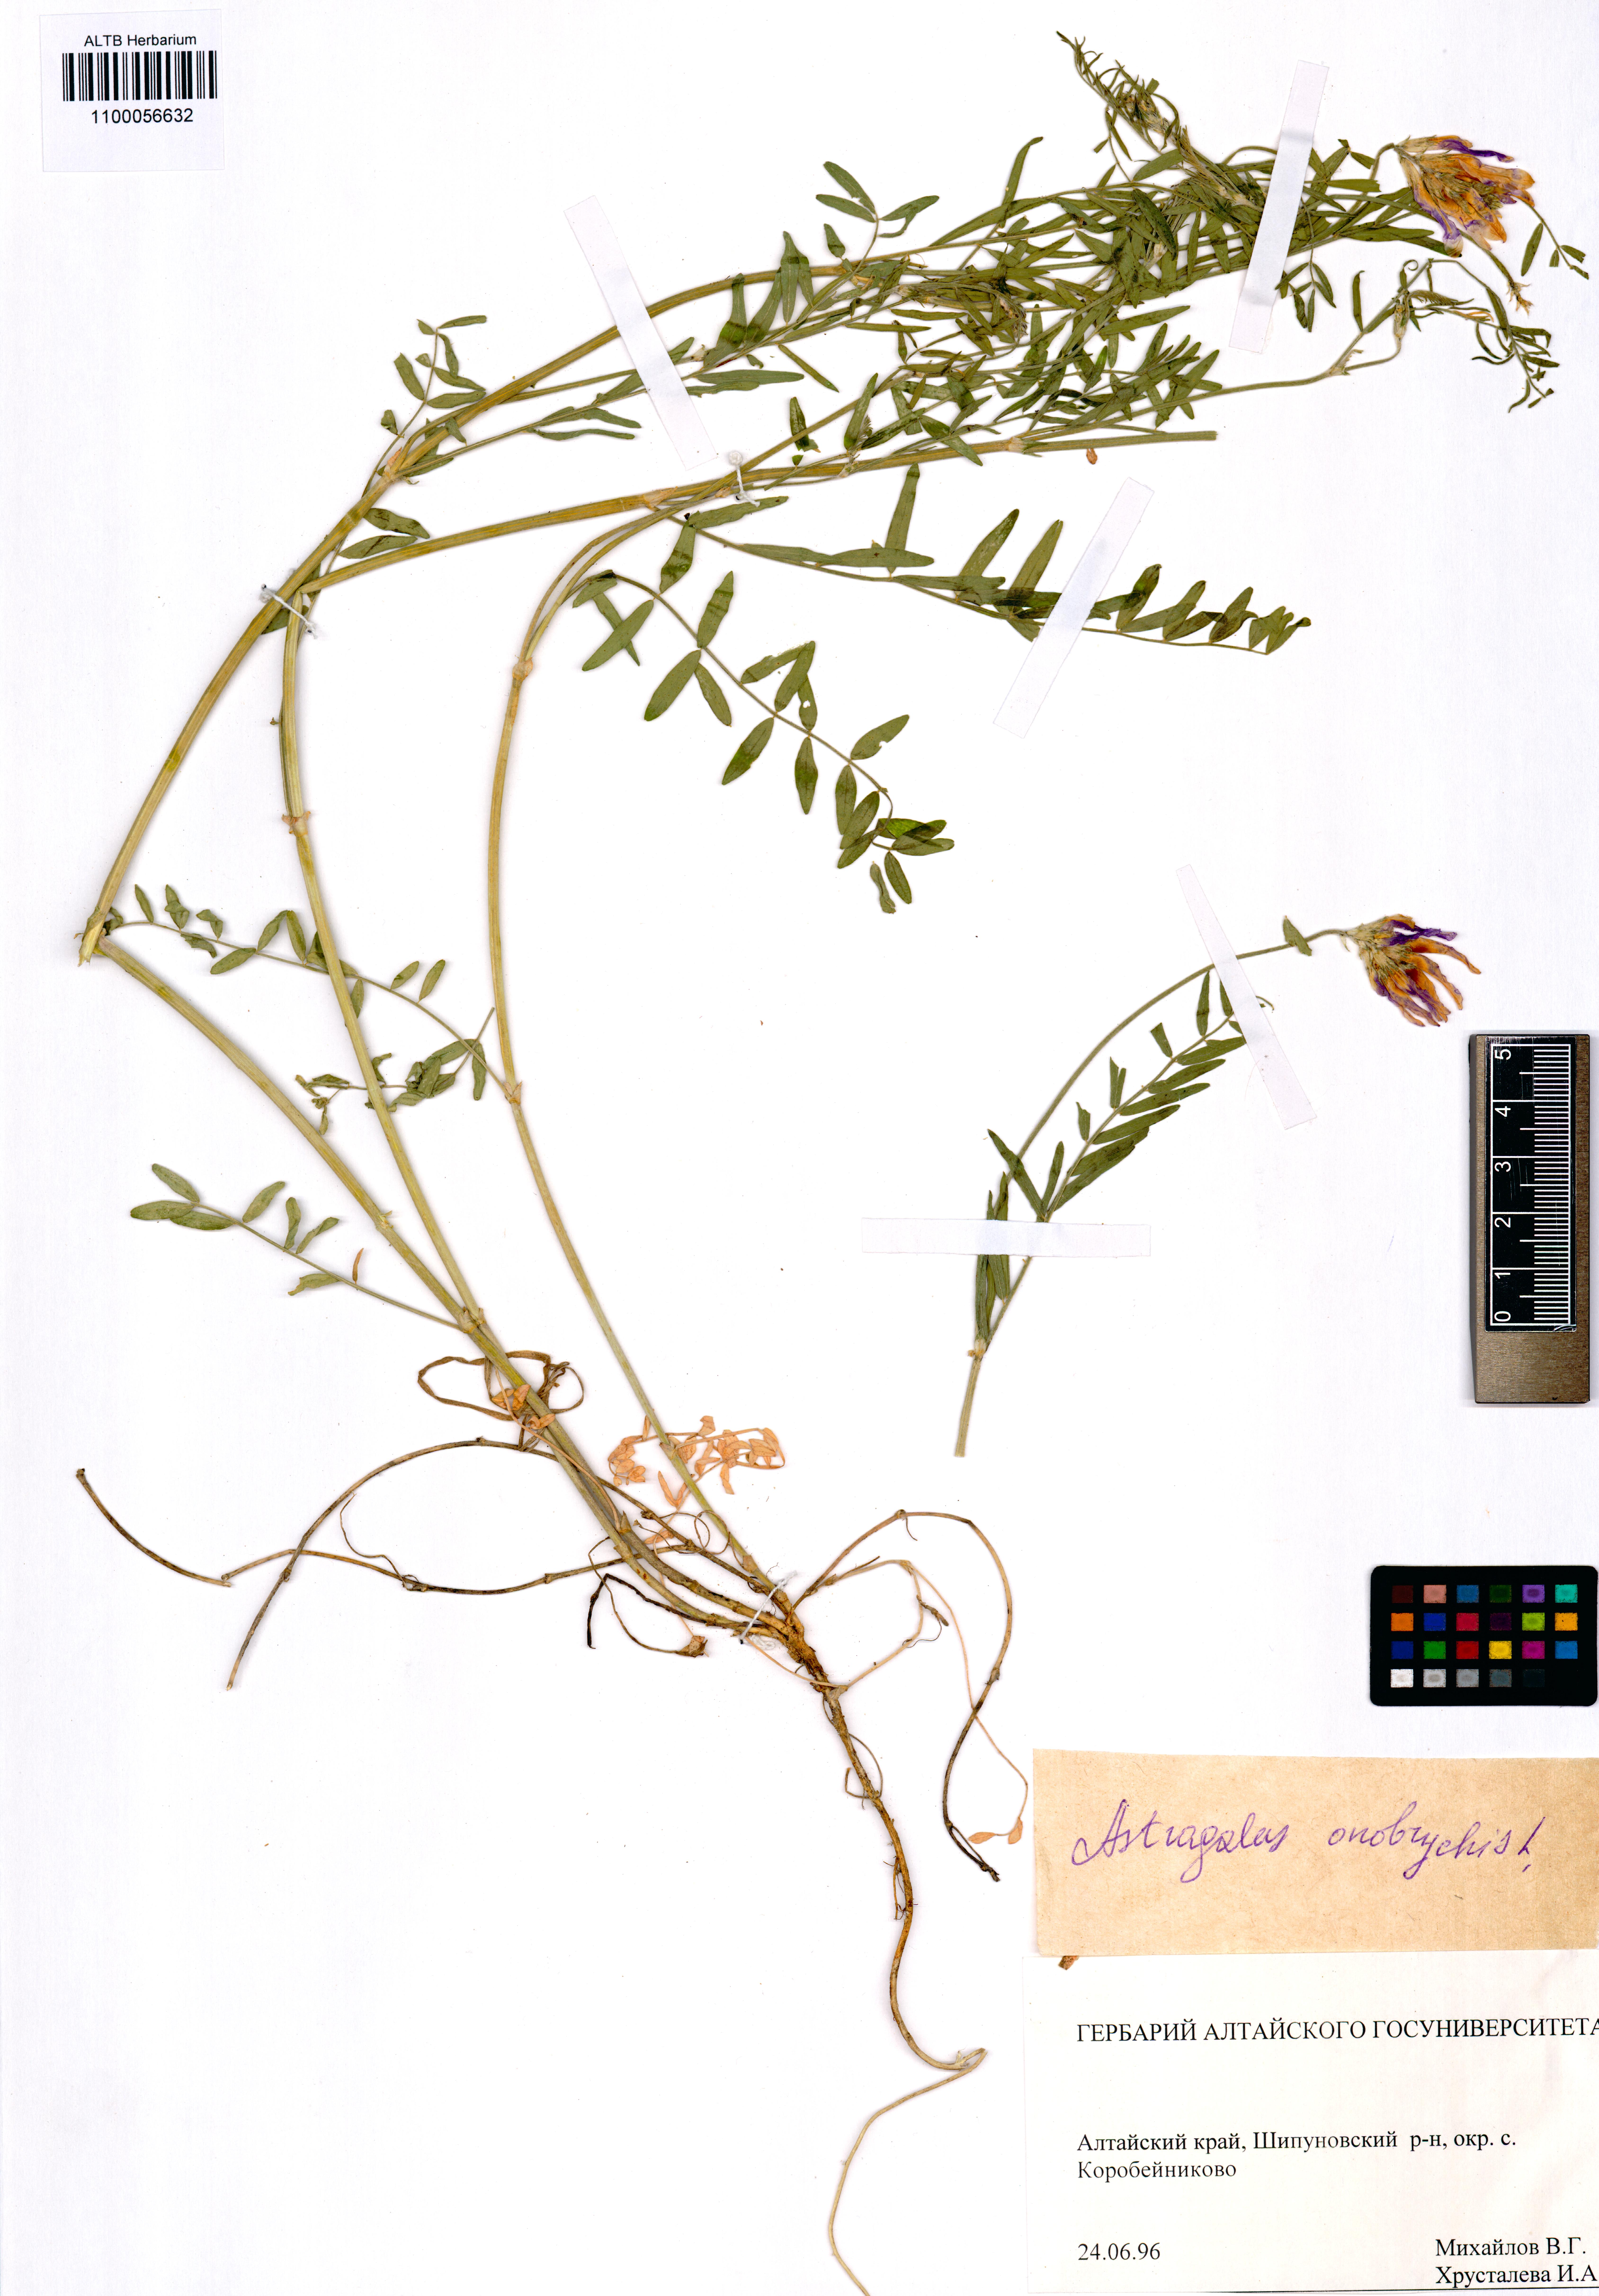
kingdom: Plantae
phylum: Tracheophyta
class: Magnoliopsida
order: Fabales
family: Fabaceae
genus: Astragalus
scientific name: Astragalus onobrychis
